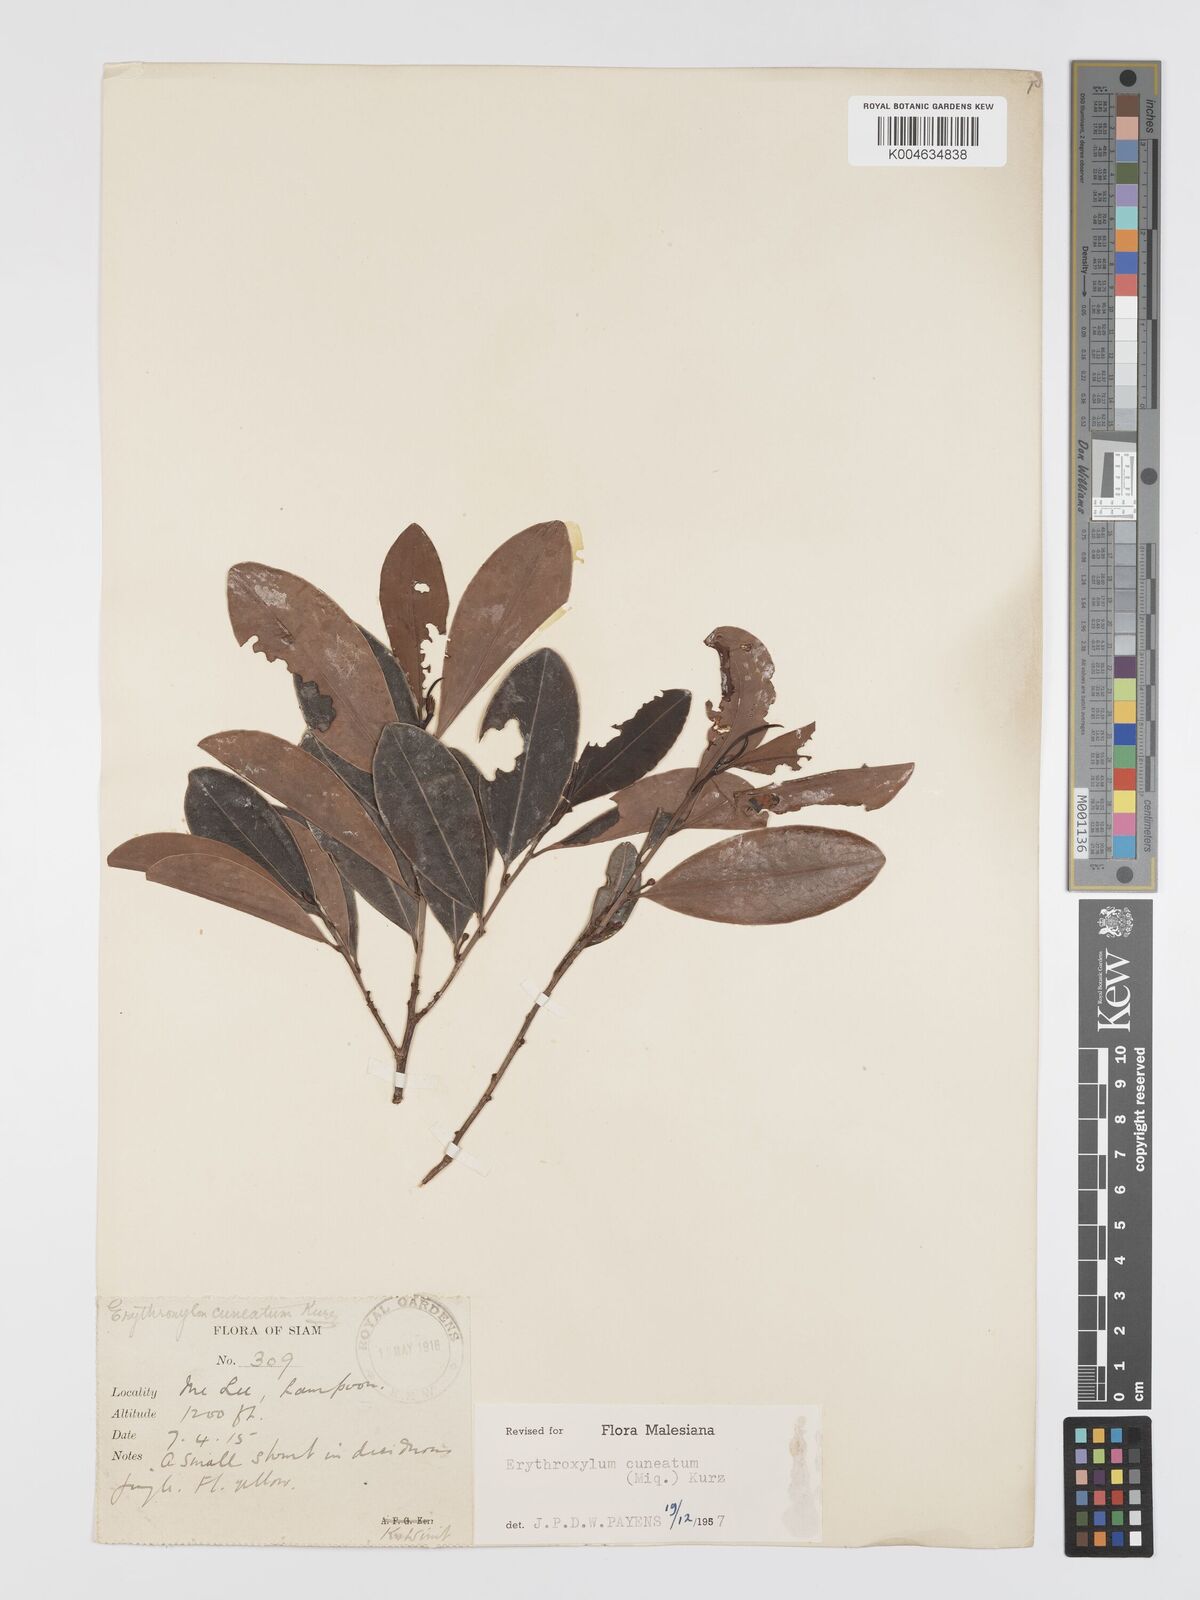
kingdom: Plantae
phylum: Tracheophyta
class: Magnoliopsida
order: Malpighiales
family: Erythroxylaceae
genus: Erythroxylum
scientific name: Erythroxylum cuneatum
